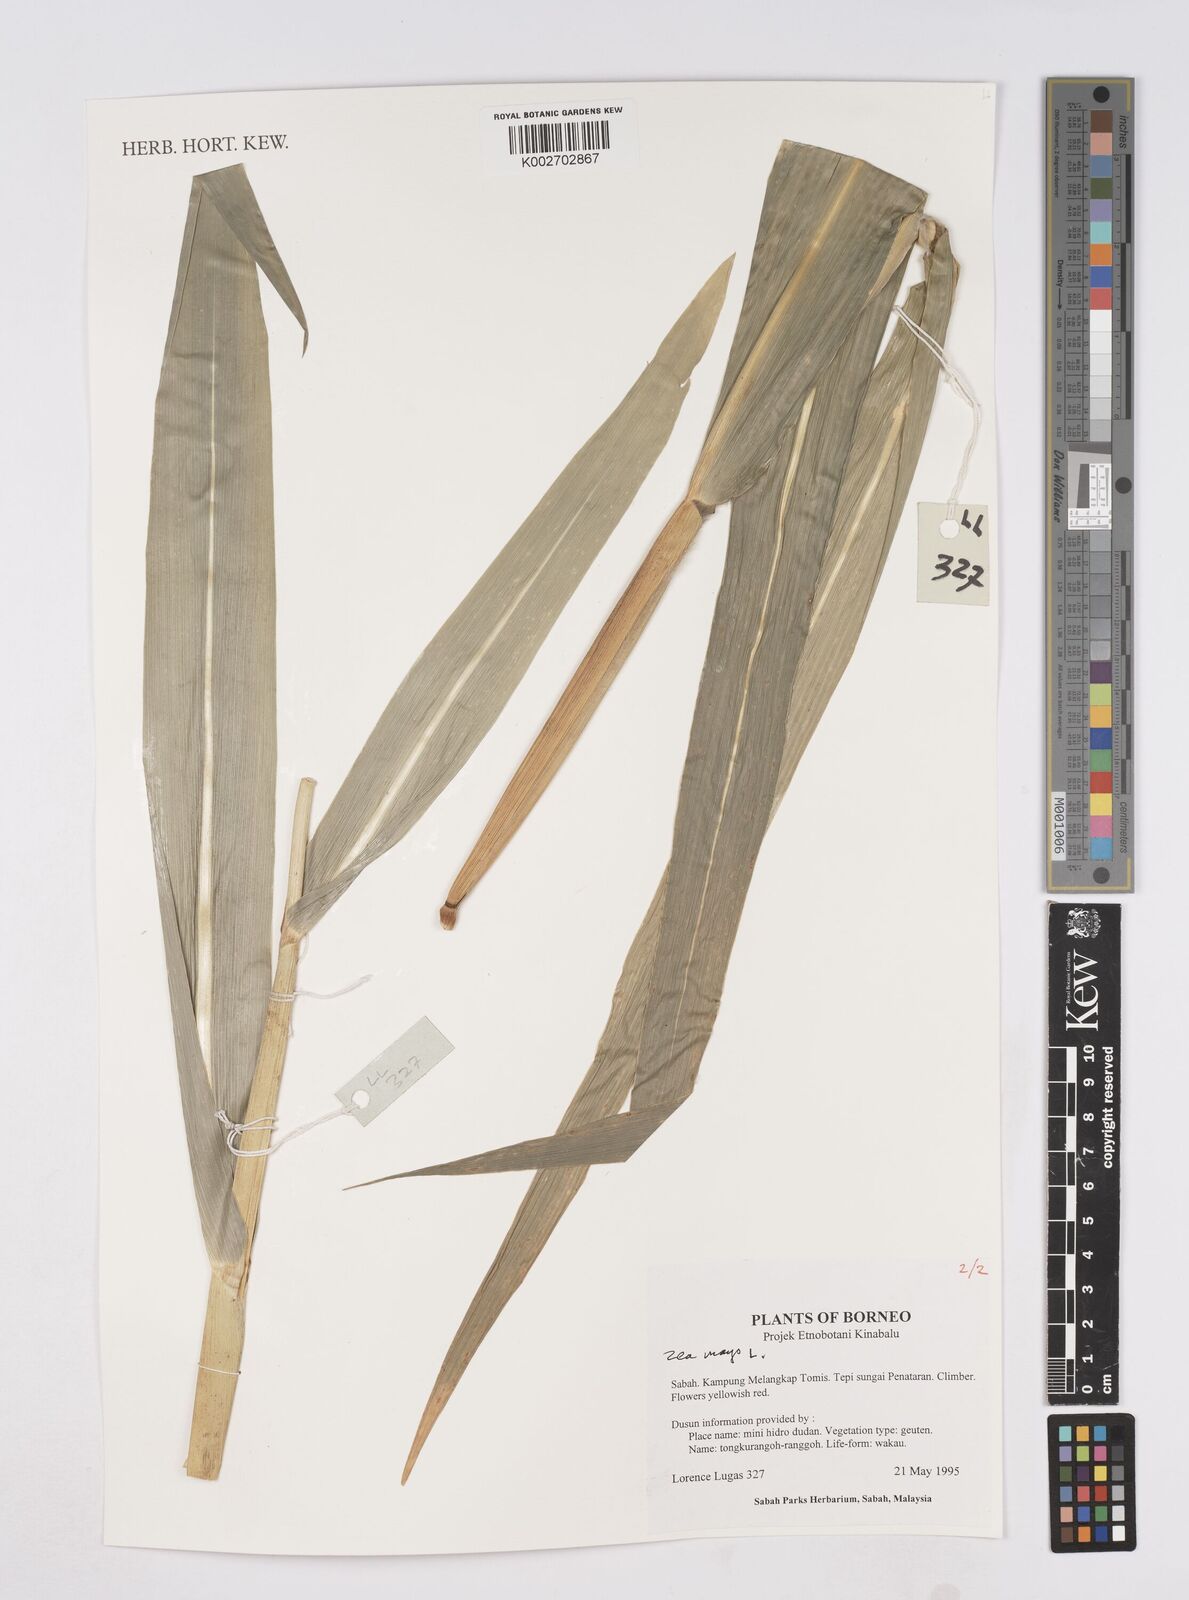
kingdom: Plantae
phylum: Tracheophyta
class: Liliopsida
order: Poales
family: Poaceae
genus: Zea
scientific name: Zea mays
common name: Maize
